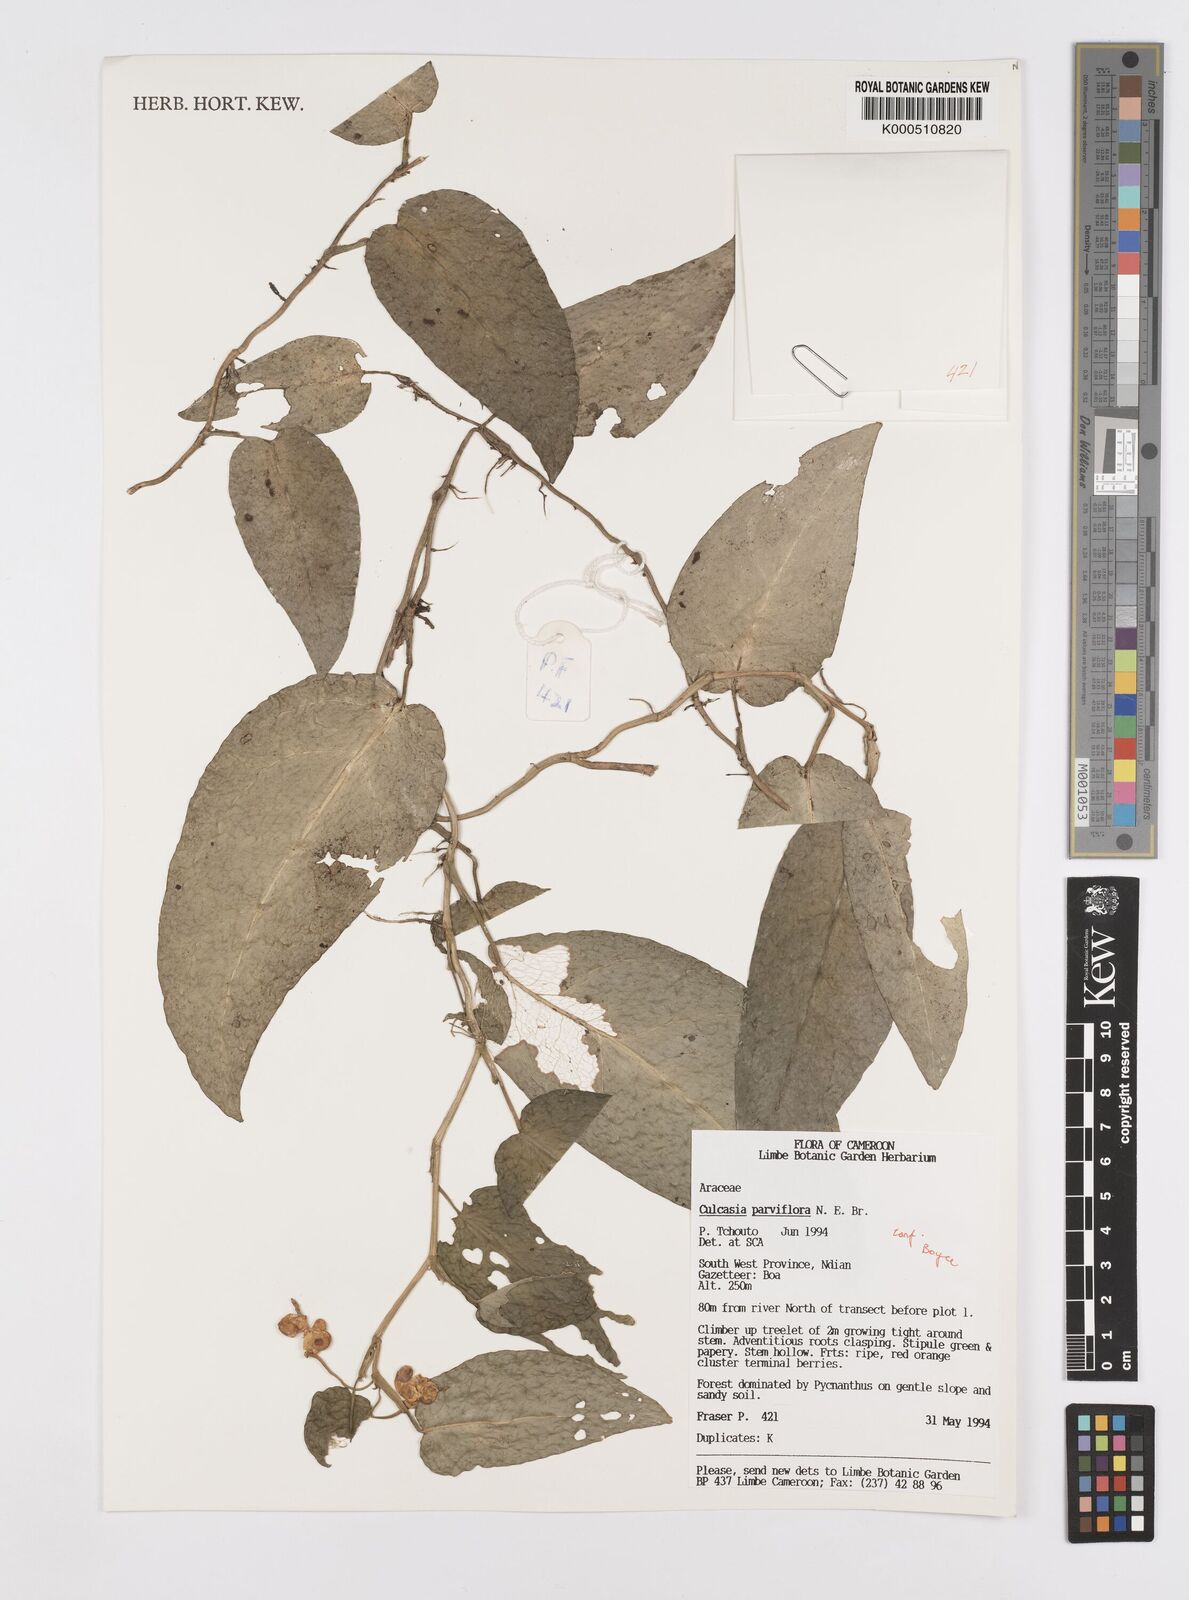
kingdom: Plantae
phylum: Tracheophyta
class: Liliopsida
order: Alismatales
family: Araceae
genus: Culcasia
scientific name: Culcasia parviflora
